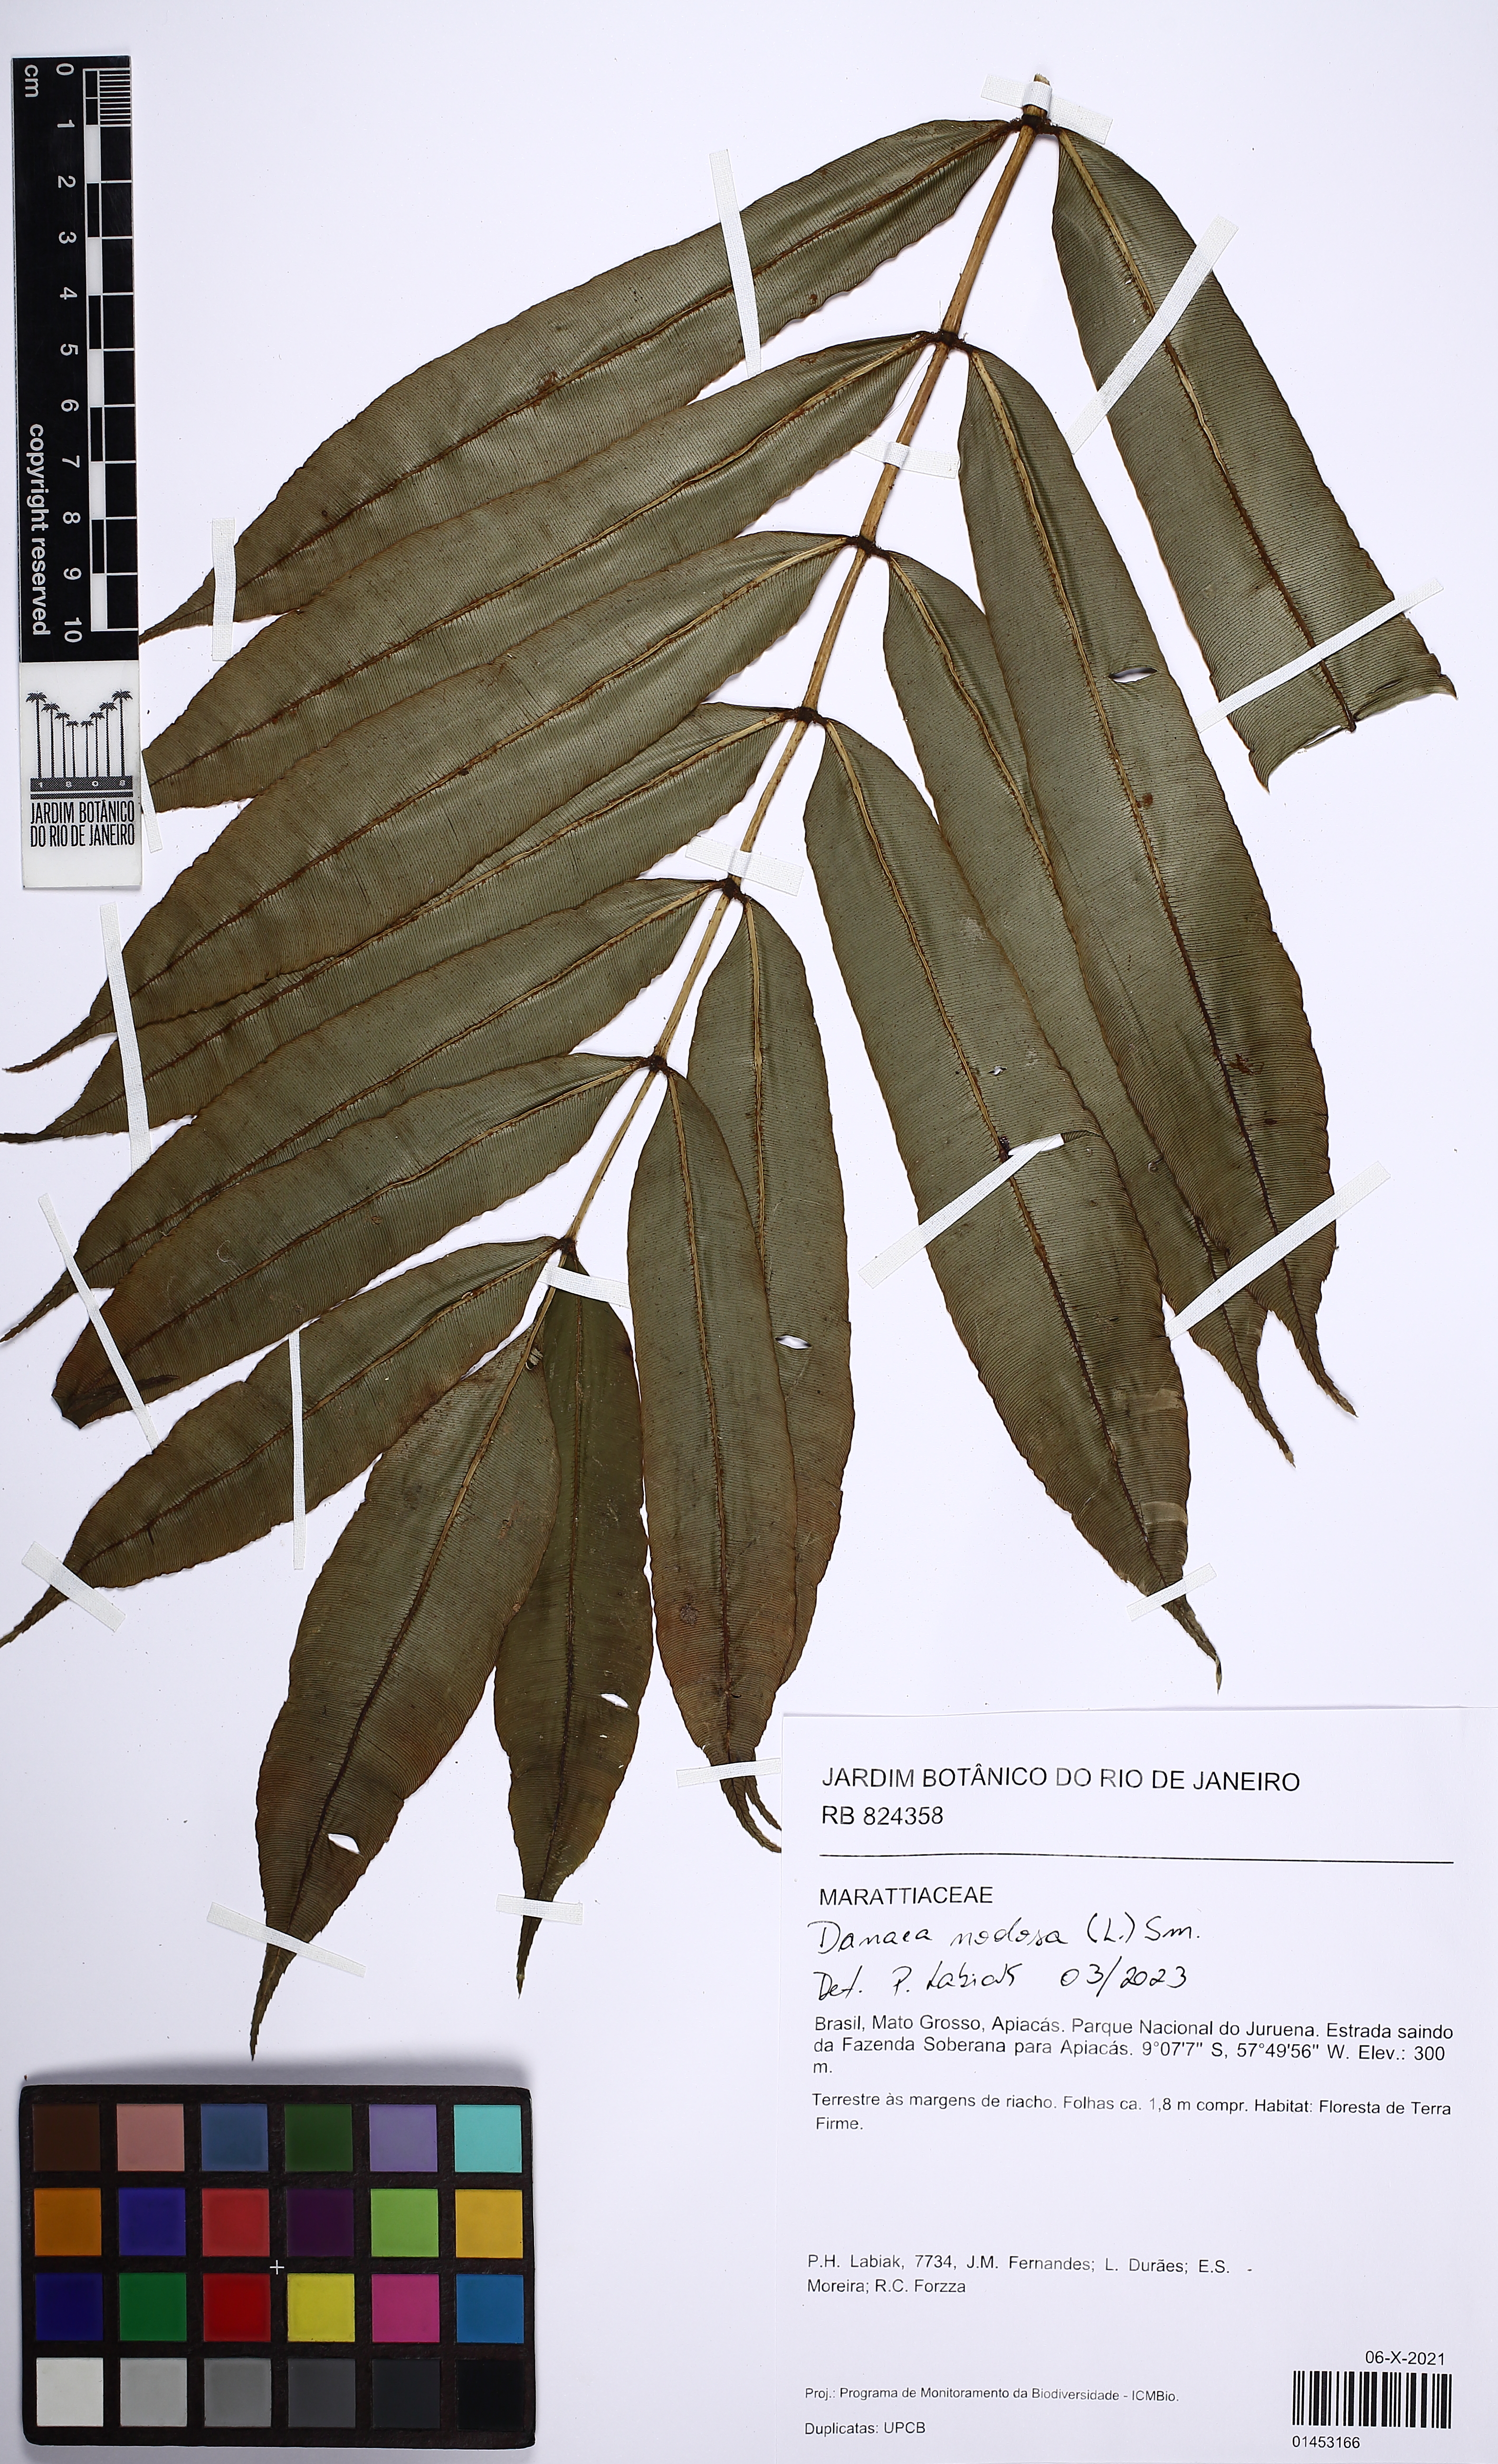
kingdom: Plantae
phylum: Tracheophyta
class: Polypodiopsida
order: Marattiales
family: Marattiaceae
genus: Danaea
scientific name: Danaea nodosa
